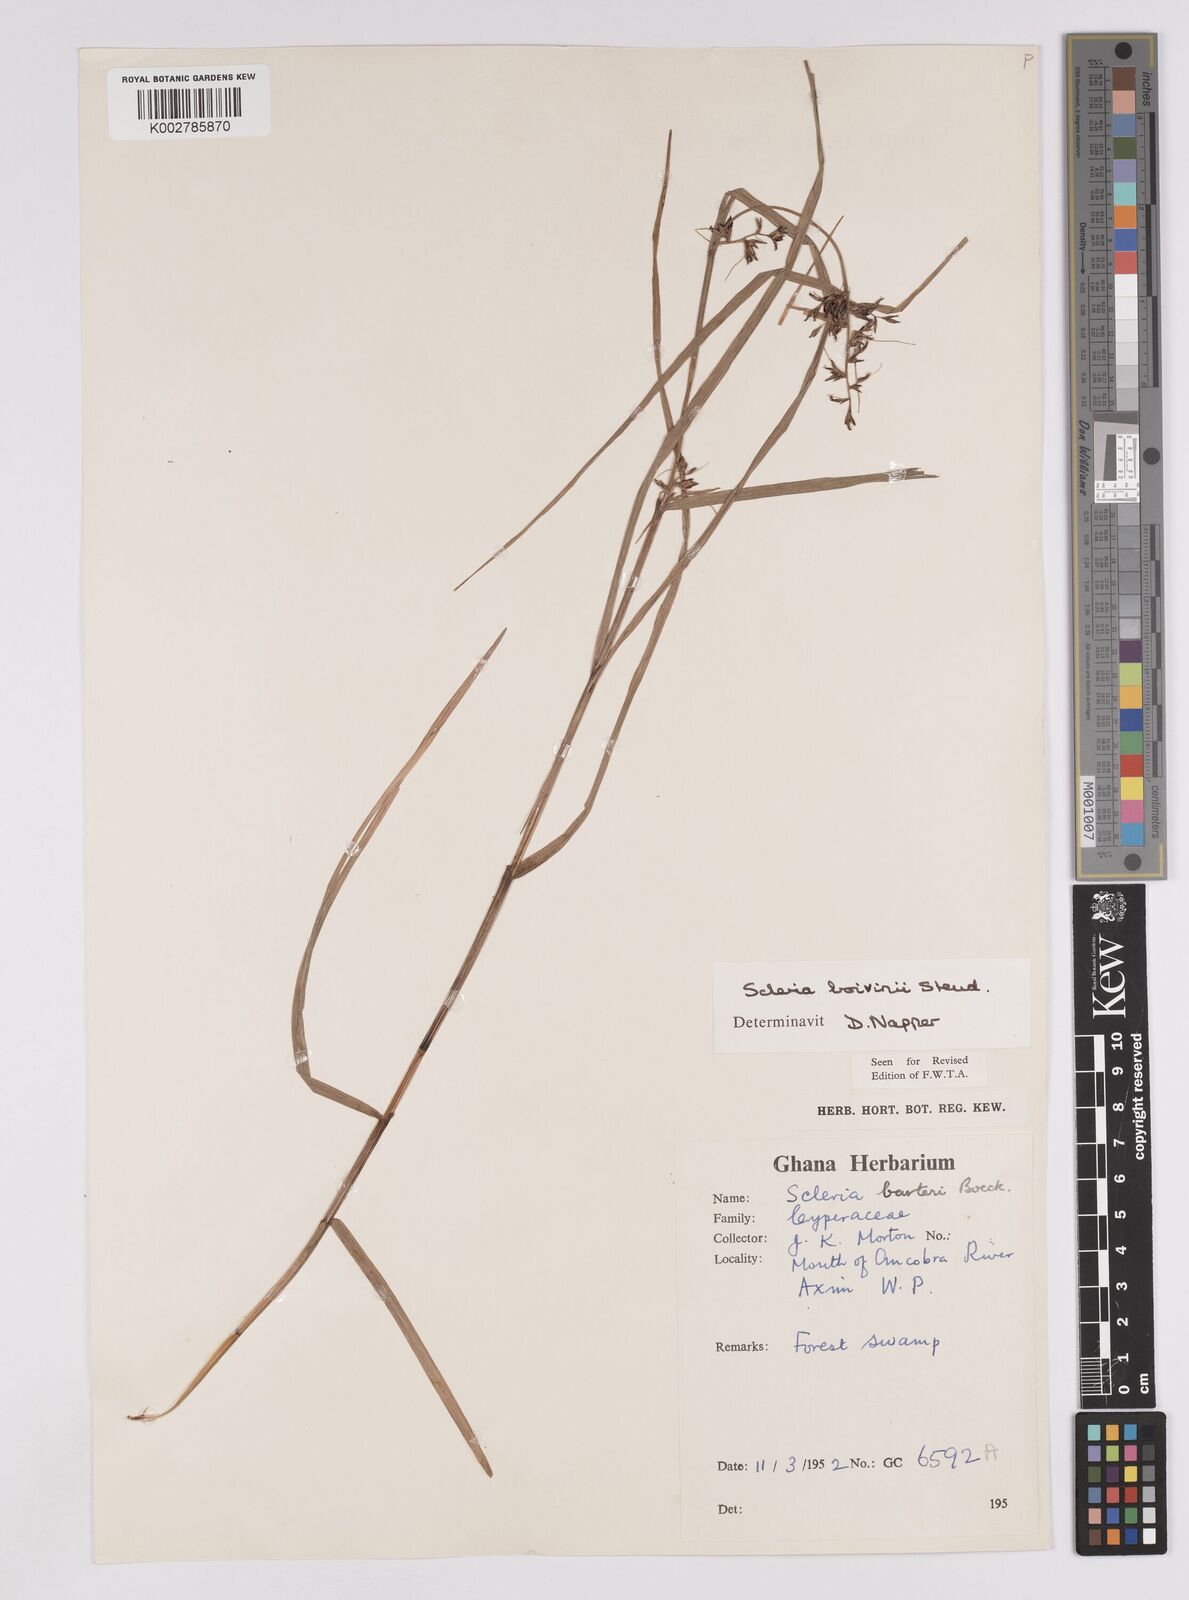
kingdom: Plantae
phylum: Tracheophyta
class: Liliopsida
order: Poales
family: Cyperaceae
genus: Scleria
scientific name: Scleria boivinii
